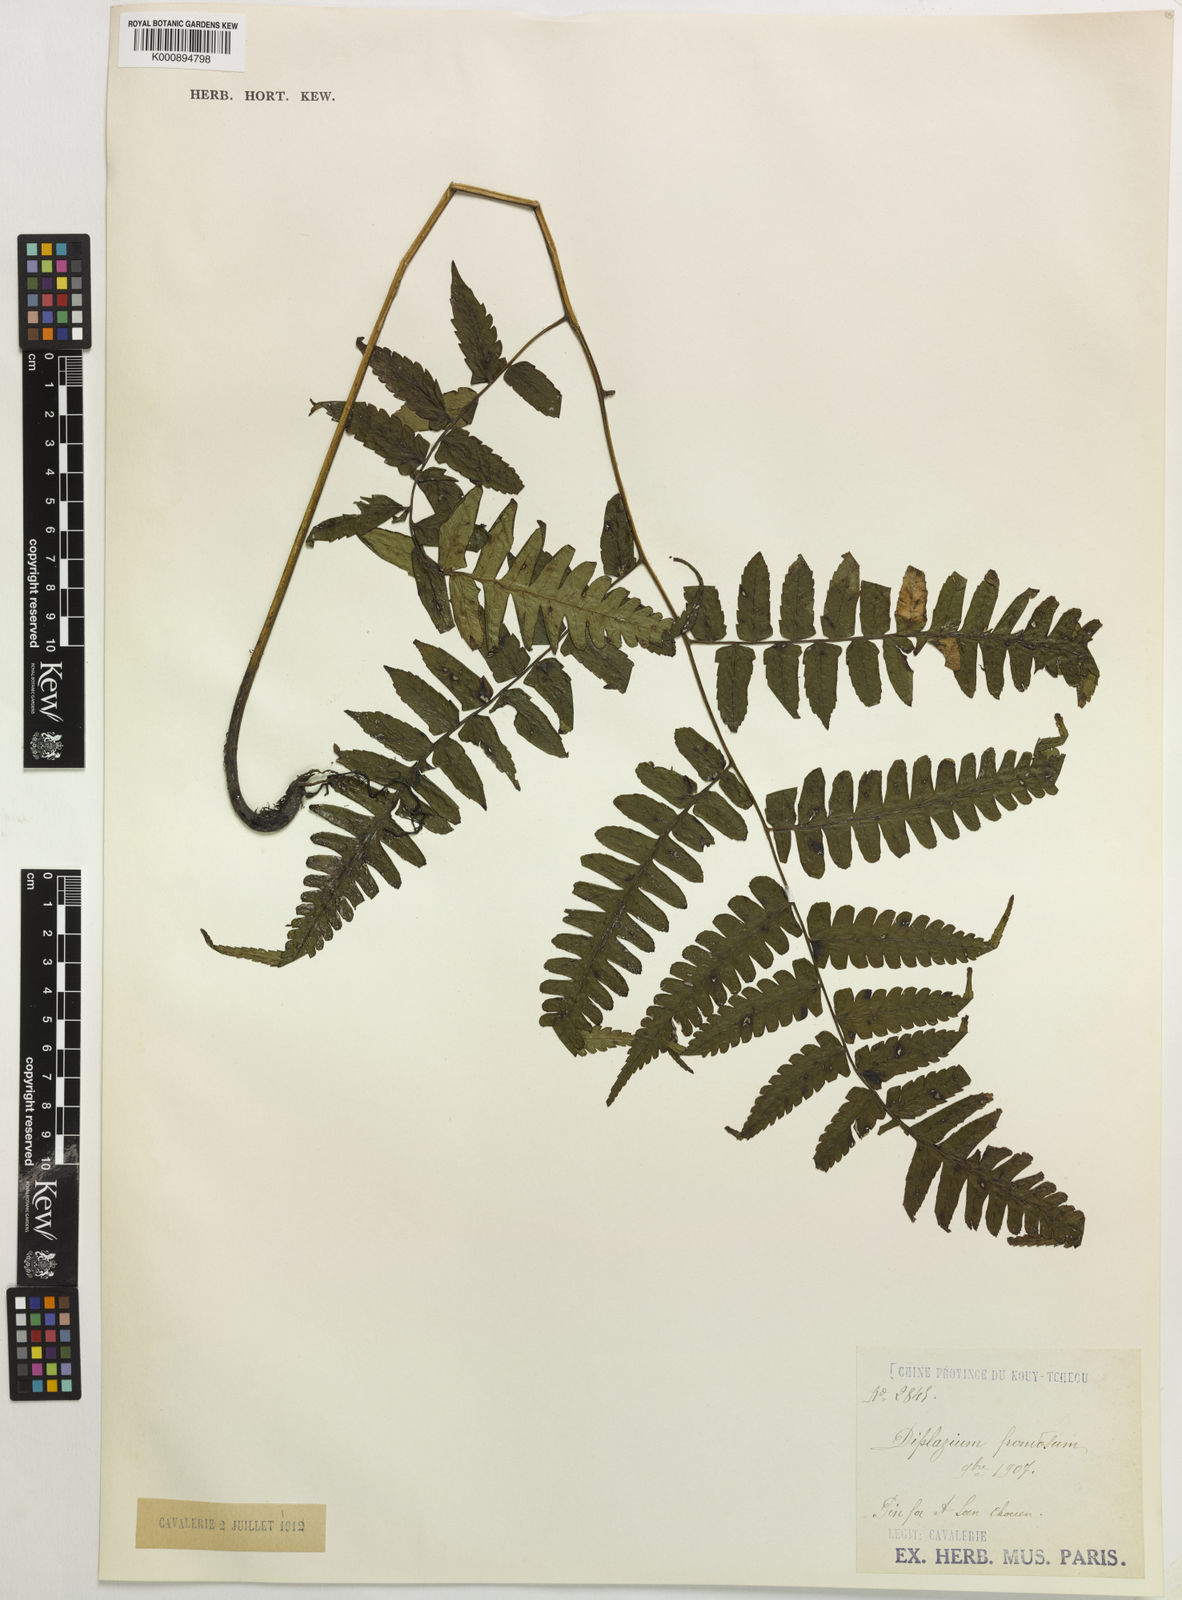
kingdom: Plantae
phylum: Tracheophyta
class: Polypodiopsida
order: Polypodiales
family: Athyriaceae
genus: Diplazium
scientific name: Diplazium maximum
